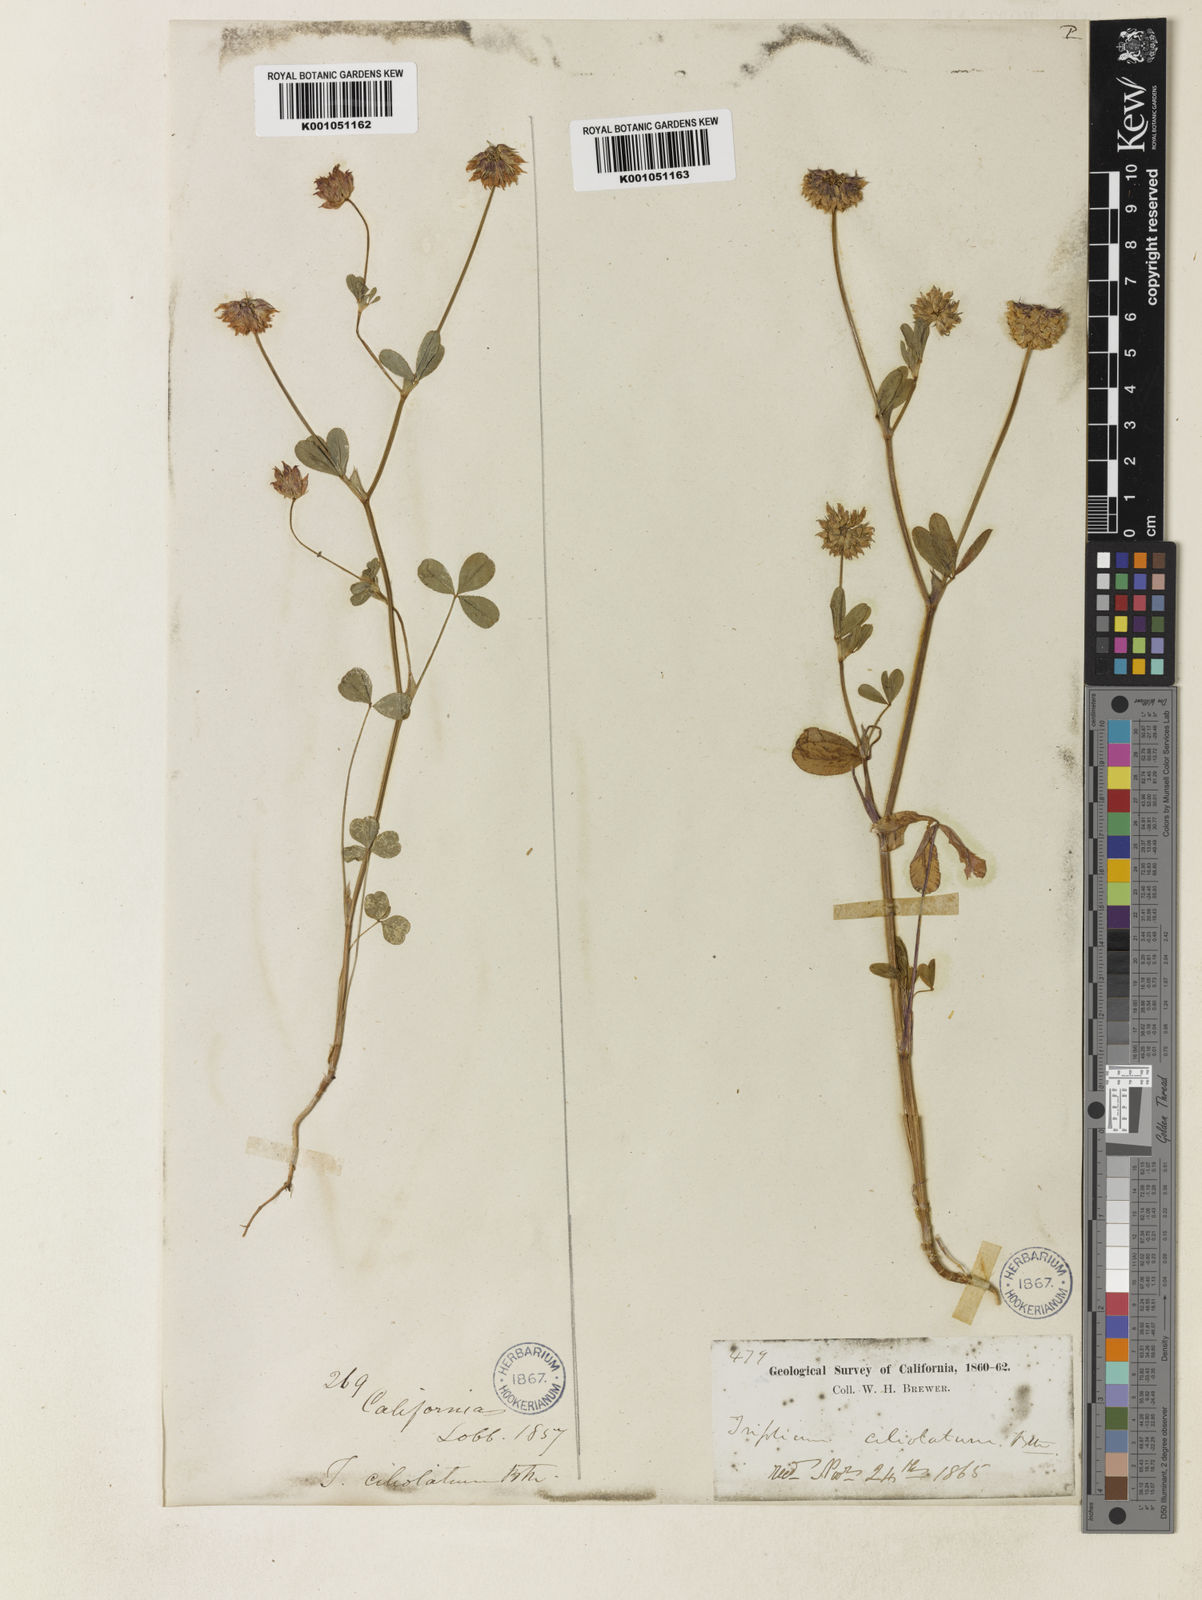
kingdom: Plantae
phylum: Tracheophyta
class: Magnoliopsida
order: Fabales
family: Fabaceae
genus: Trifolium
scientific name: Trifolium ciliolatum
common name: Foothill clover
